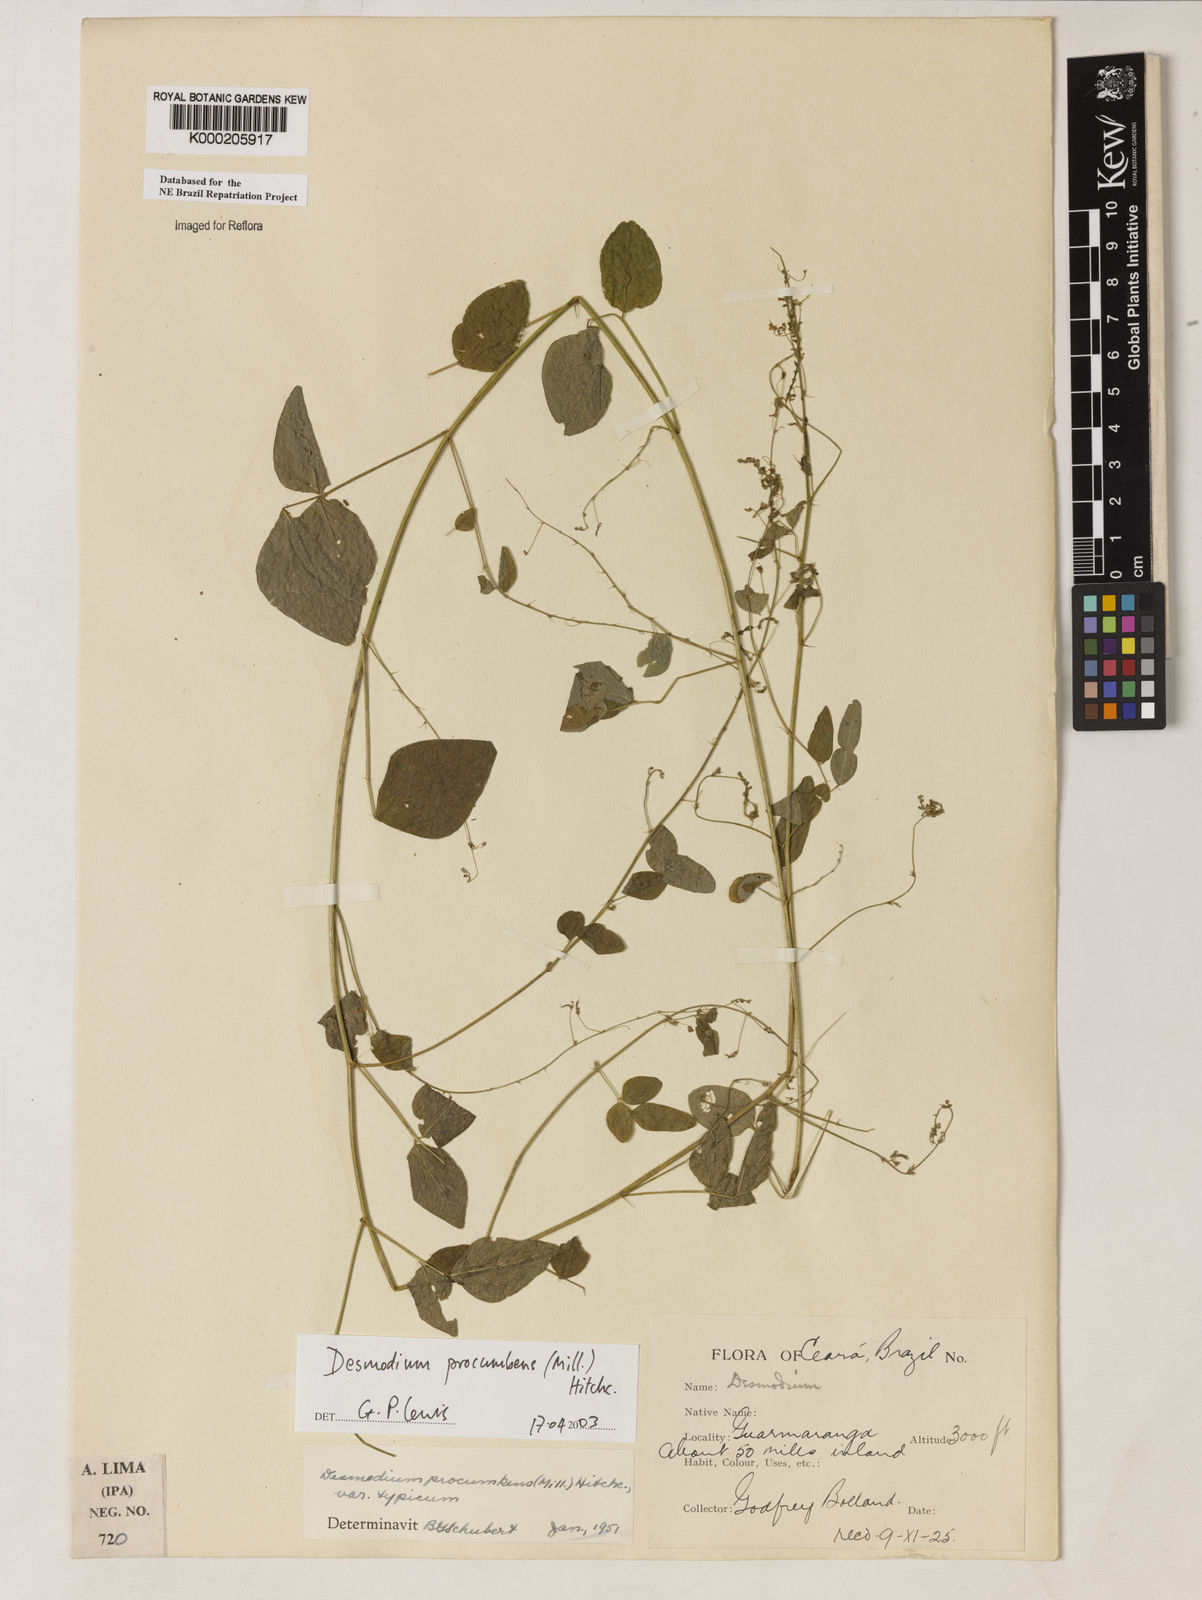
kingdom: Plantae
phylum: Tracheophyta
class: Magnoliopsida
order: Fabales
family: Fabaceae
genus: Desmodium
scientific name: Desmodium procumbens
